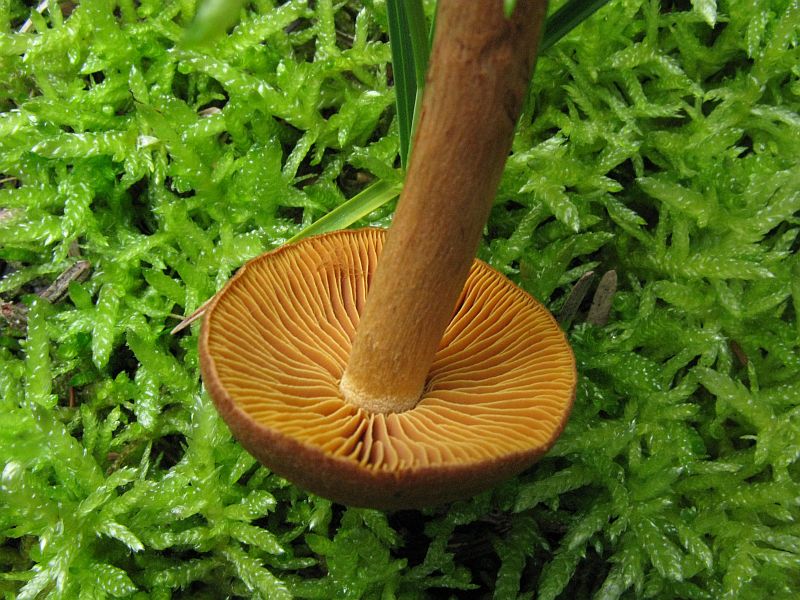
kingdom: Fungi
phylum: Basidiomycota
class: Agaricomycetes
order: Agaricales
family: Cortinariaceae
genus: Cortinarius
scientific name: Cortinarius cinnamomeus
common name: kanel-slørhat
